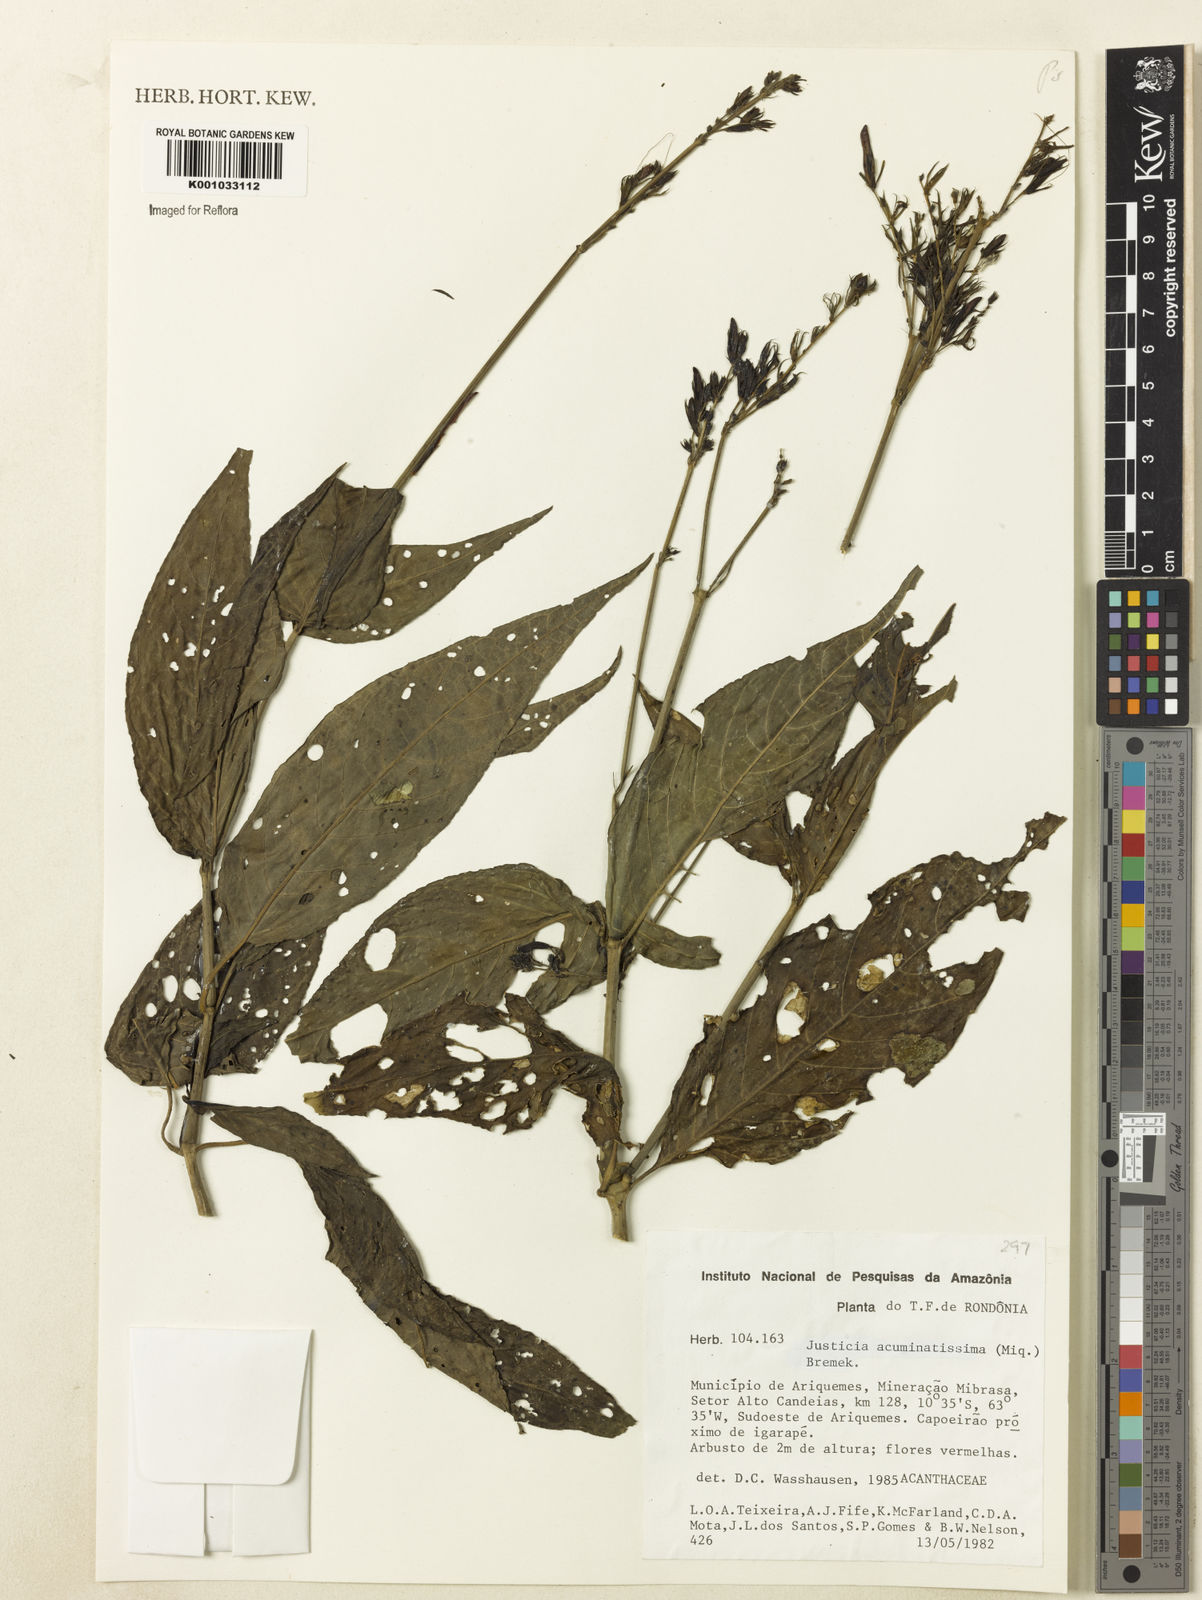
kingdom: Plantae
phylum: Tracheophyta
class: Magnoliopsida
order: Lamiales
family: Acanthaceae
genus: Dianthera
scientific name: Dianthera calycina
